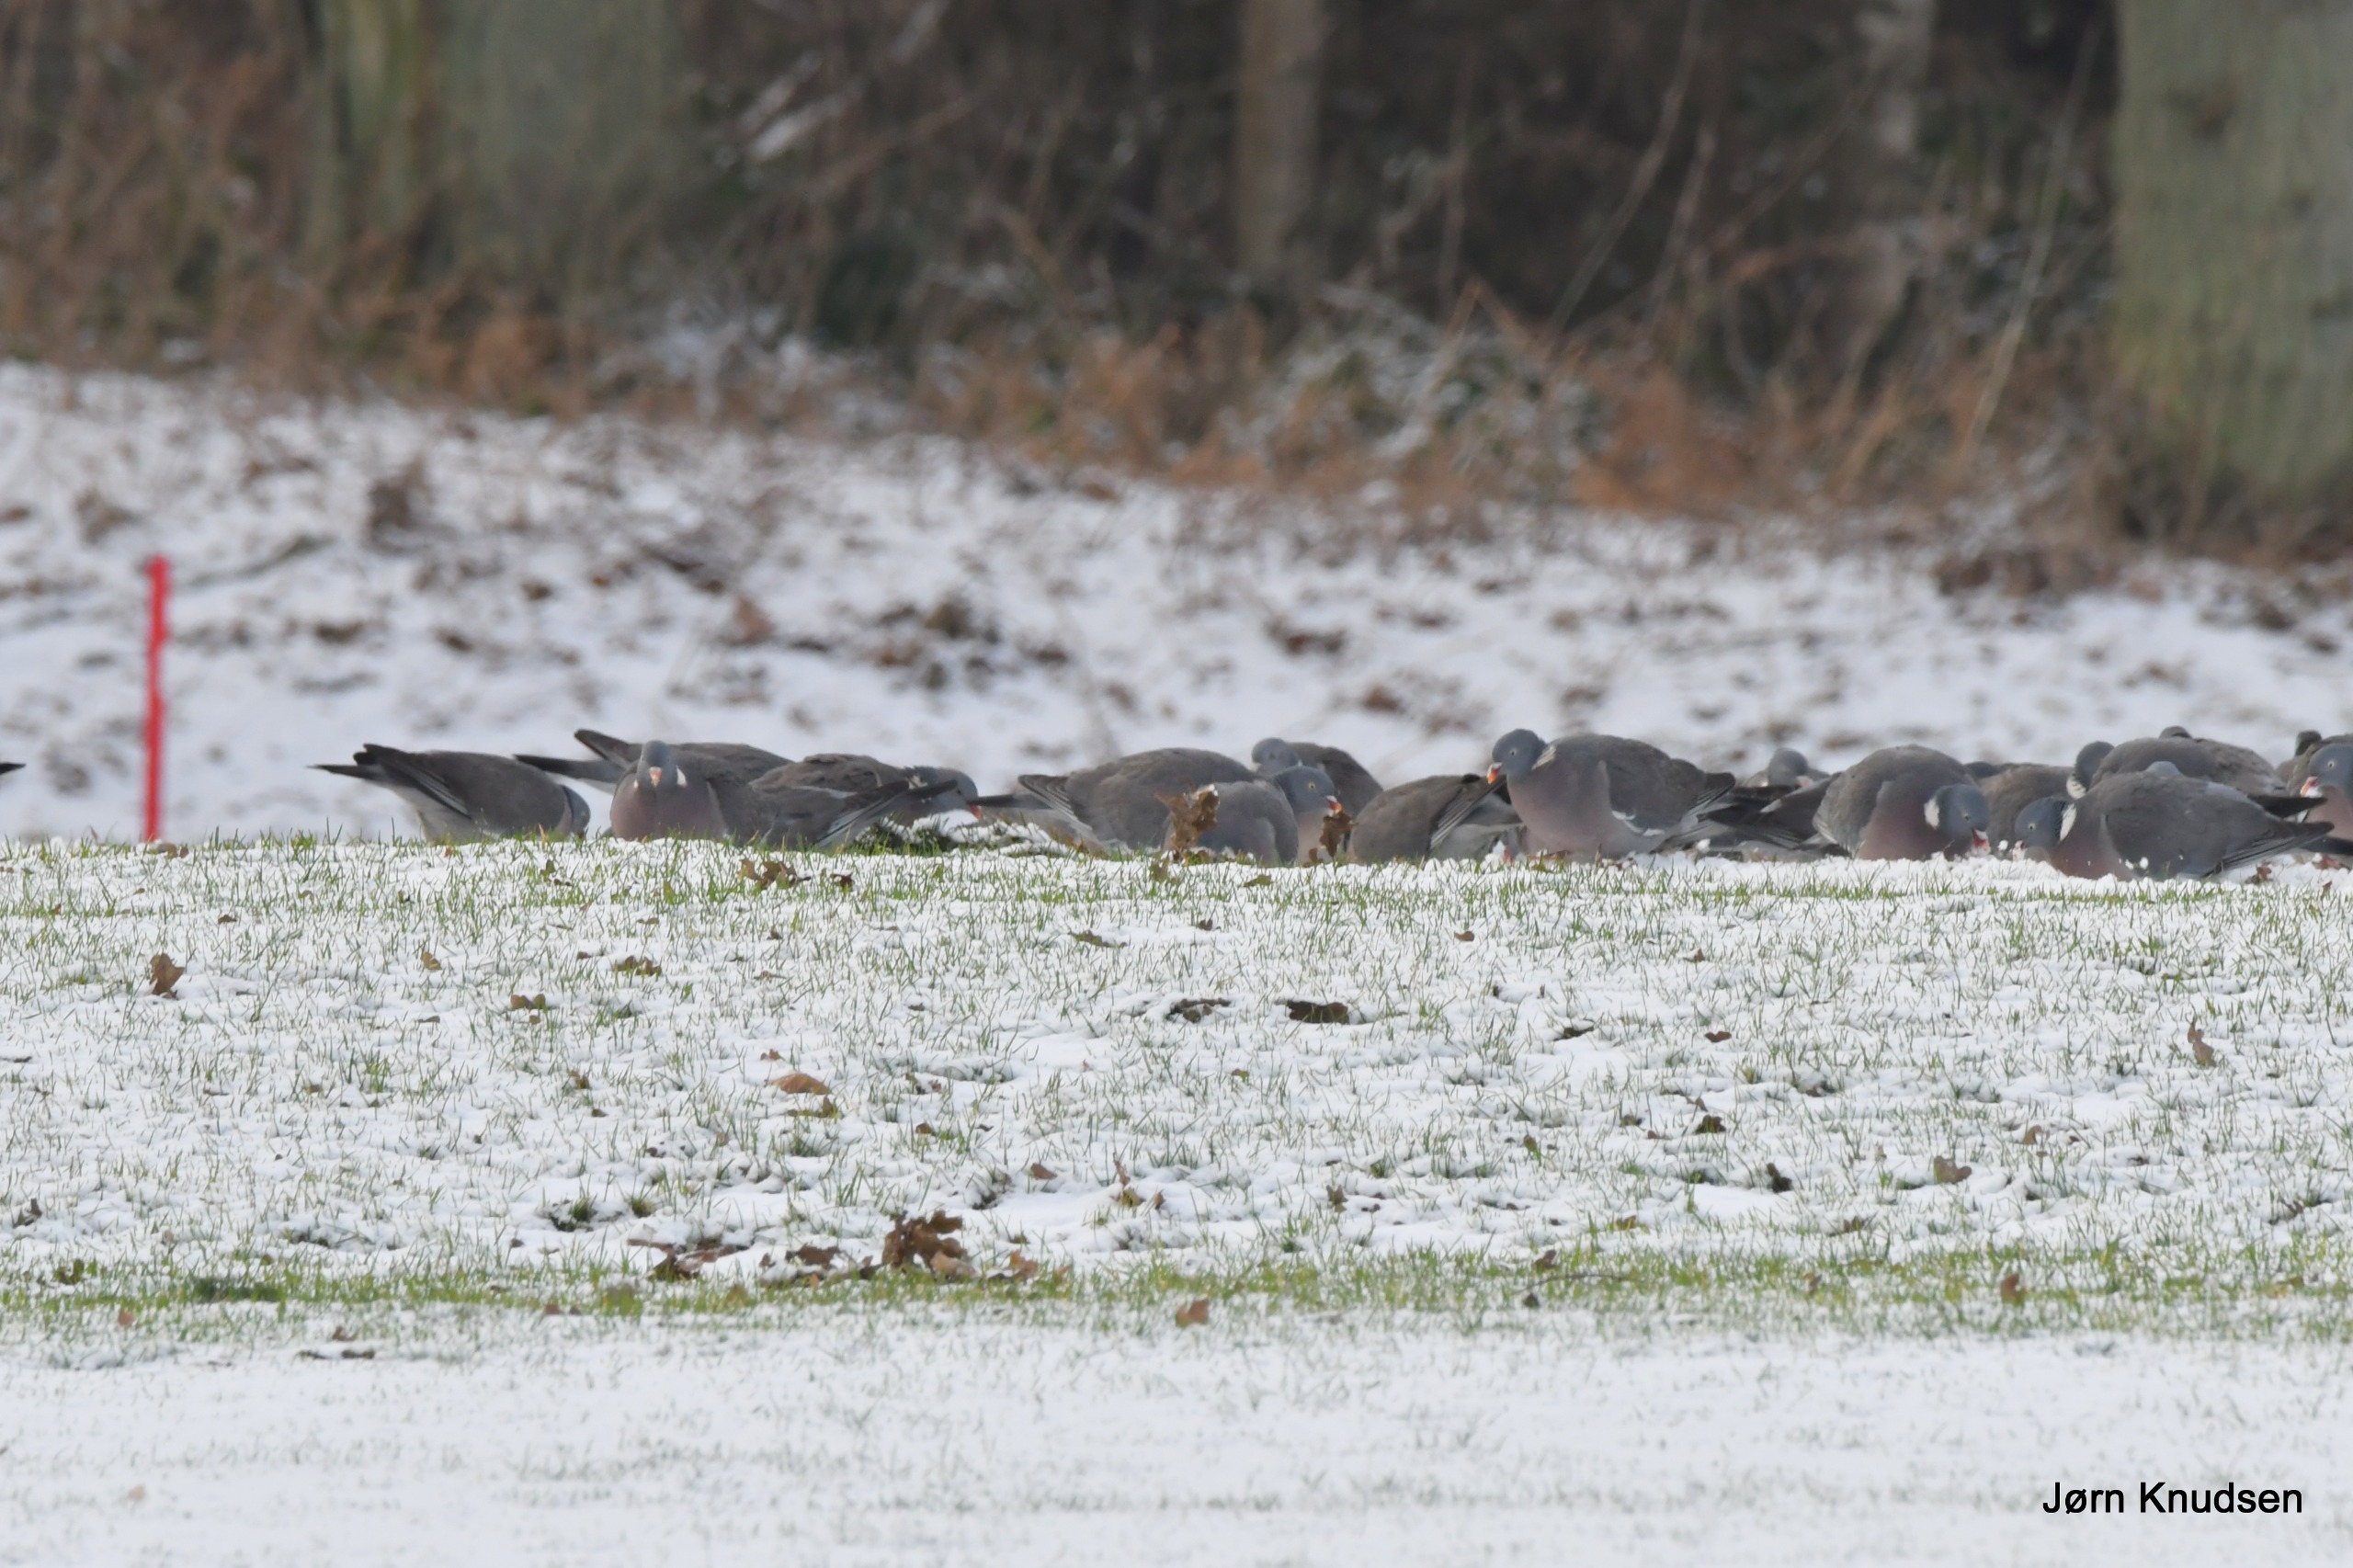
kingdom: Animalia
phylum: Chordata
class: Aves
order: Columbiformes
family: Columbidae
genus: Columba
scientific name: Columba palumbus
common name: Ringdue
